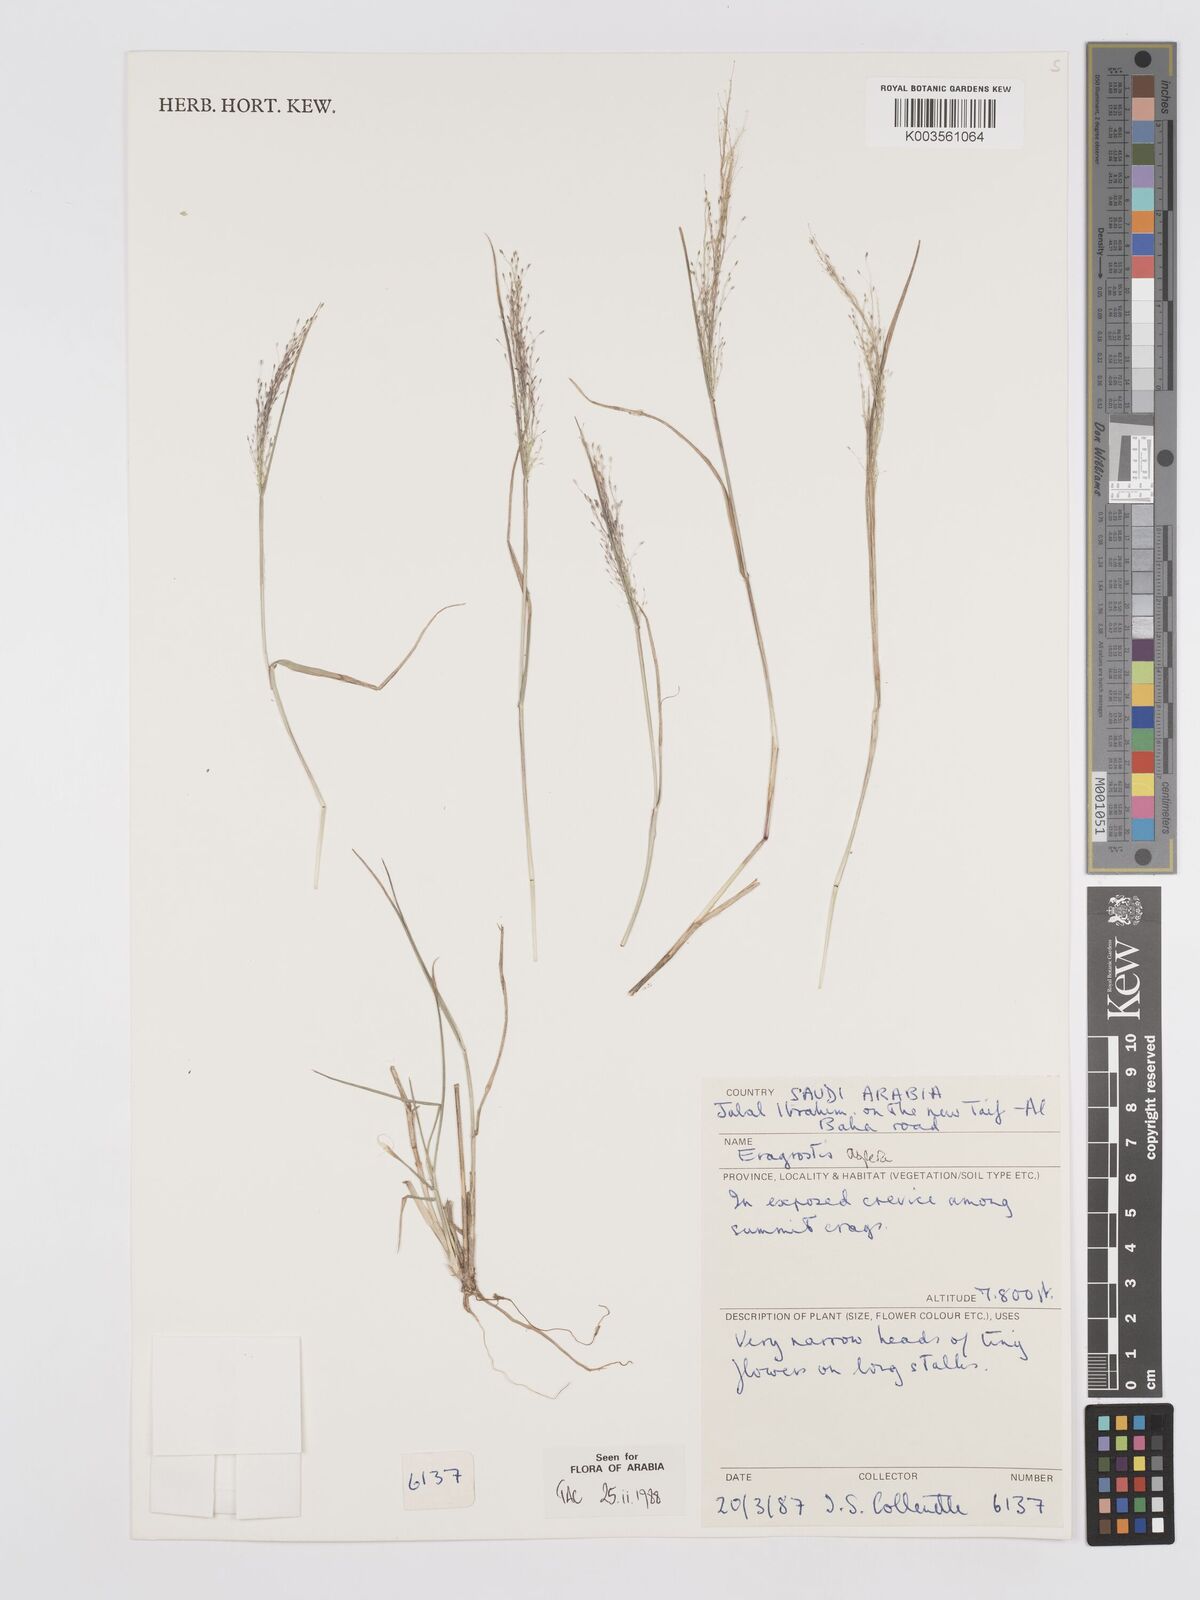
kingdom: Plantae
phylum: Tracheophyta
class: Liliopsida
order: Poales
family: Poaceae
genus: Eragrostis
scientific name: Eragrostis aspera
